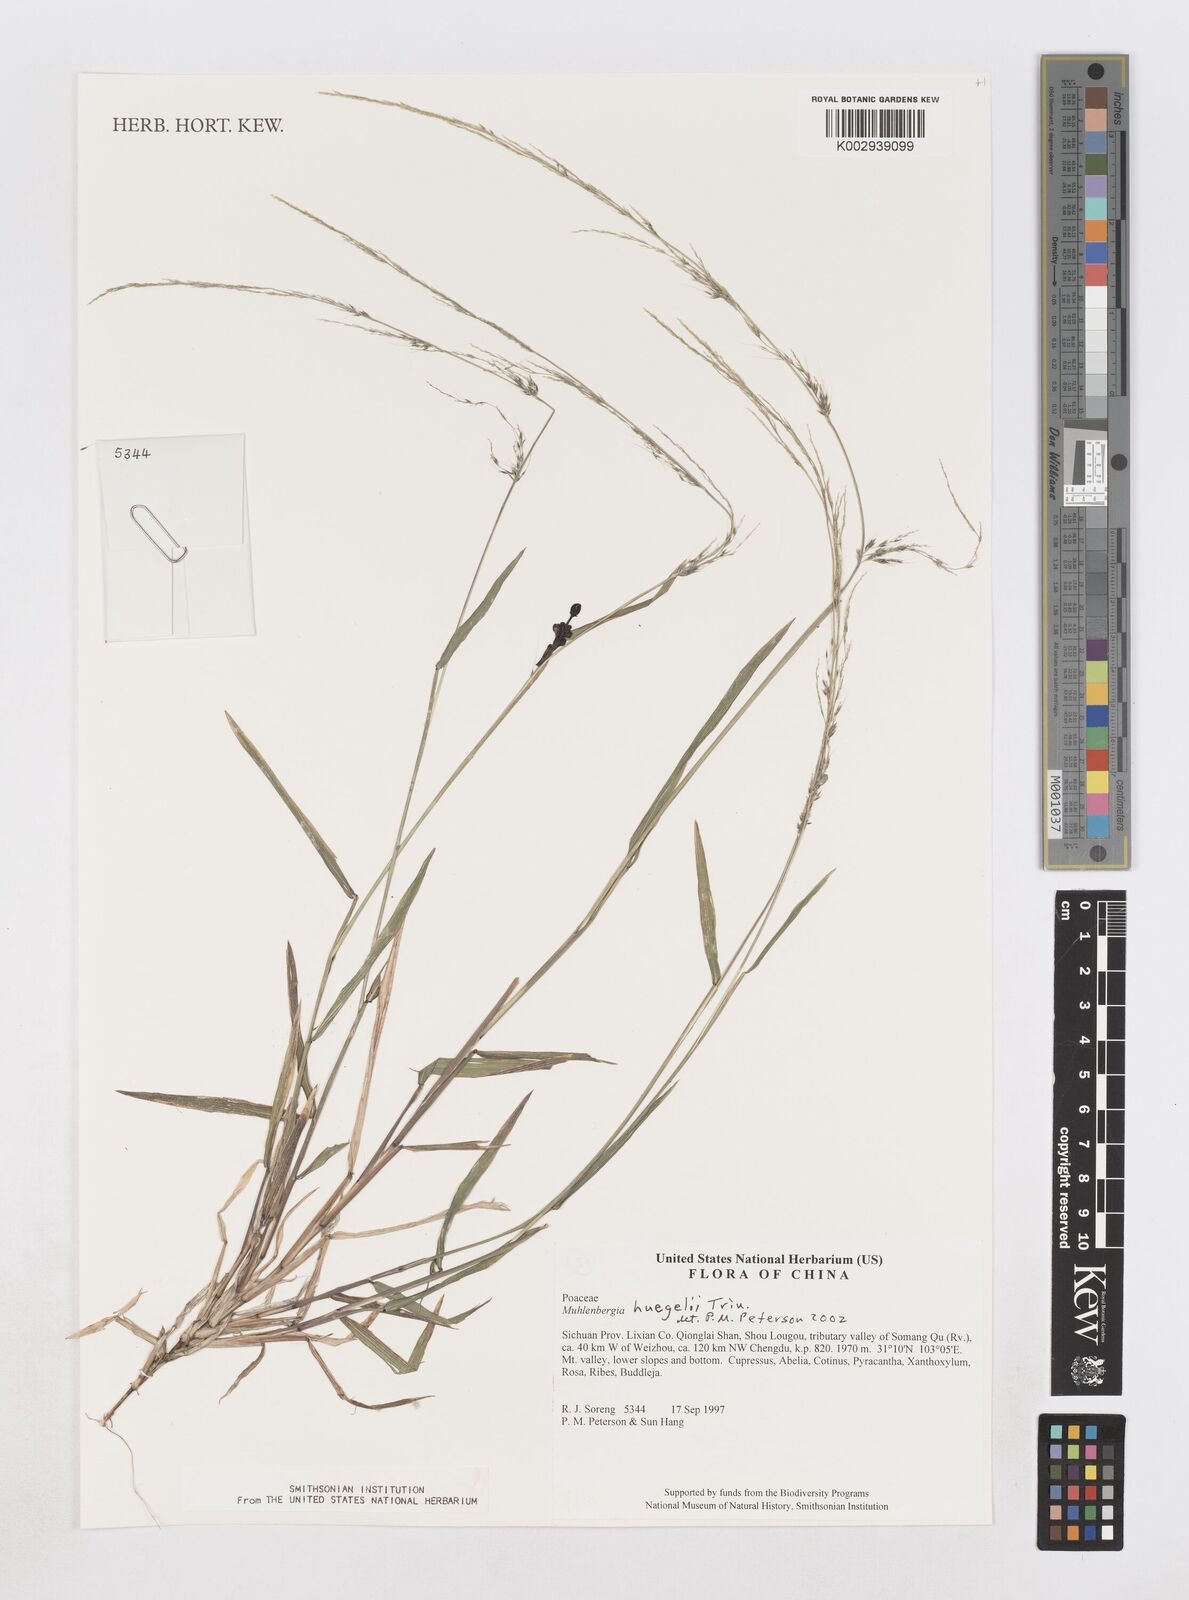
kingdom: Plantae
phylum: Tracheophyta
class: Liliopsida
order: Poales
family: Poaceae
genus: Muhlenbergia
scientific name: Muhlenbergia huegelii
